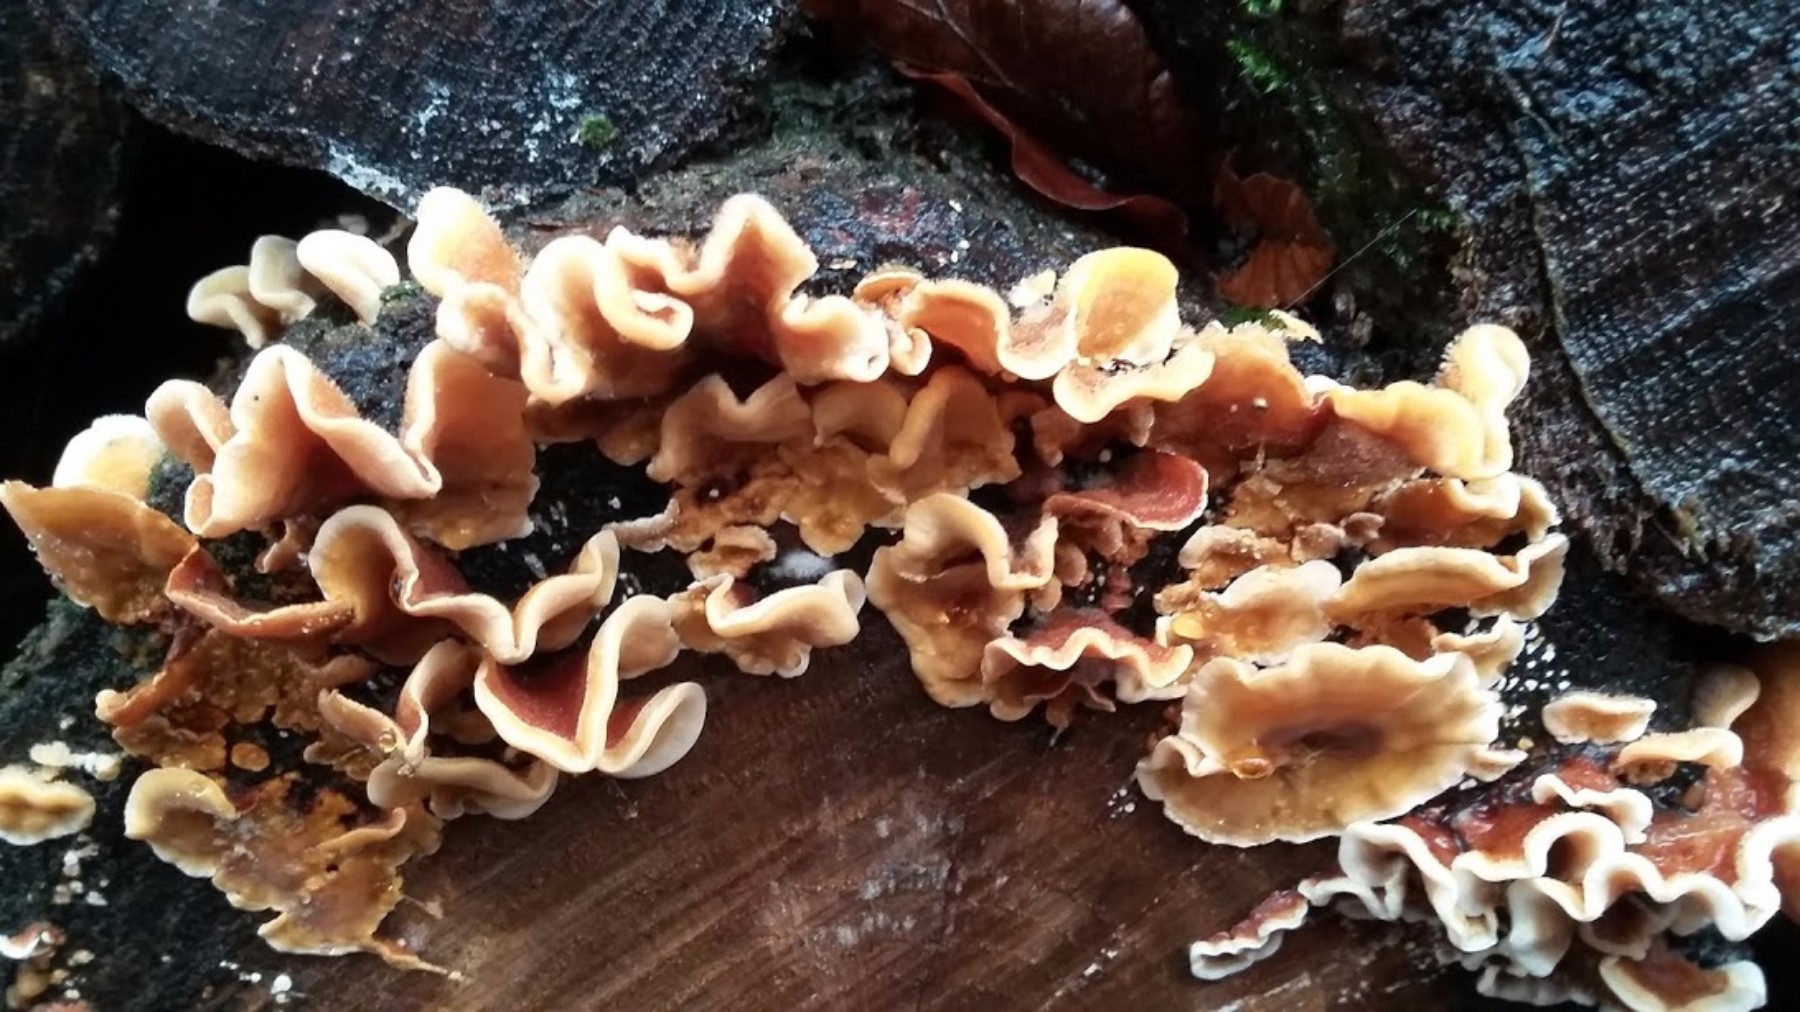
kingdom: Fungi
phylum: Basidiomycota
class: Agaricomycetes
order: Russulales
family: Stereaceae
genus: Stereum
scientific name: Stereum hirsutum
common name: håret lædersvamp
